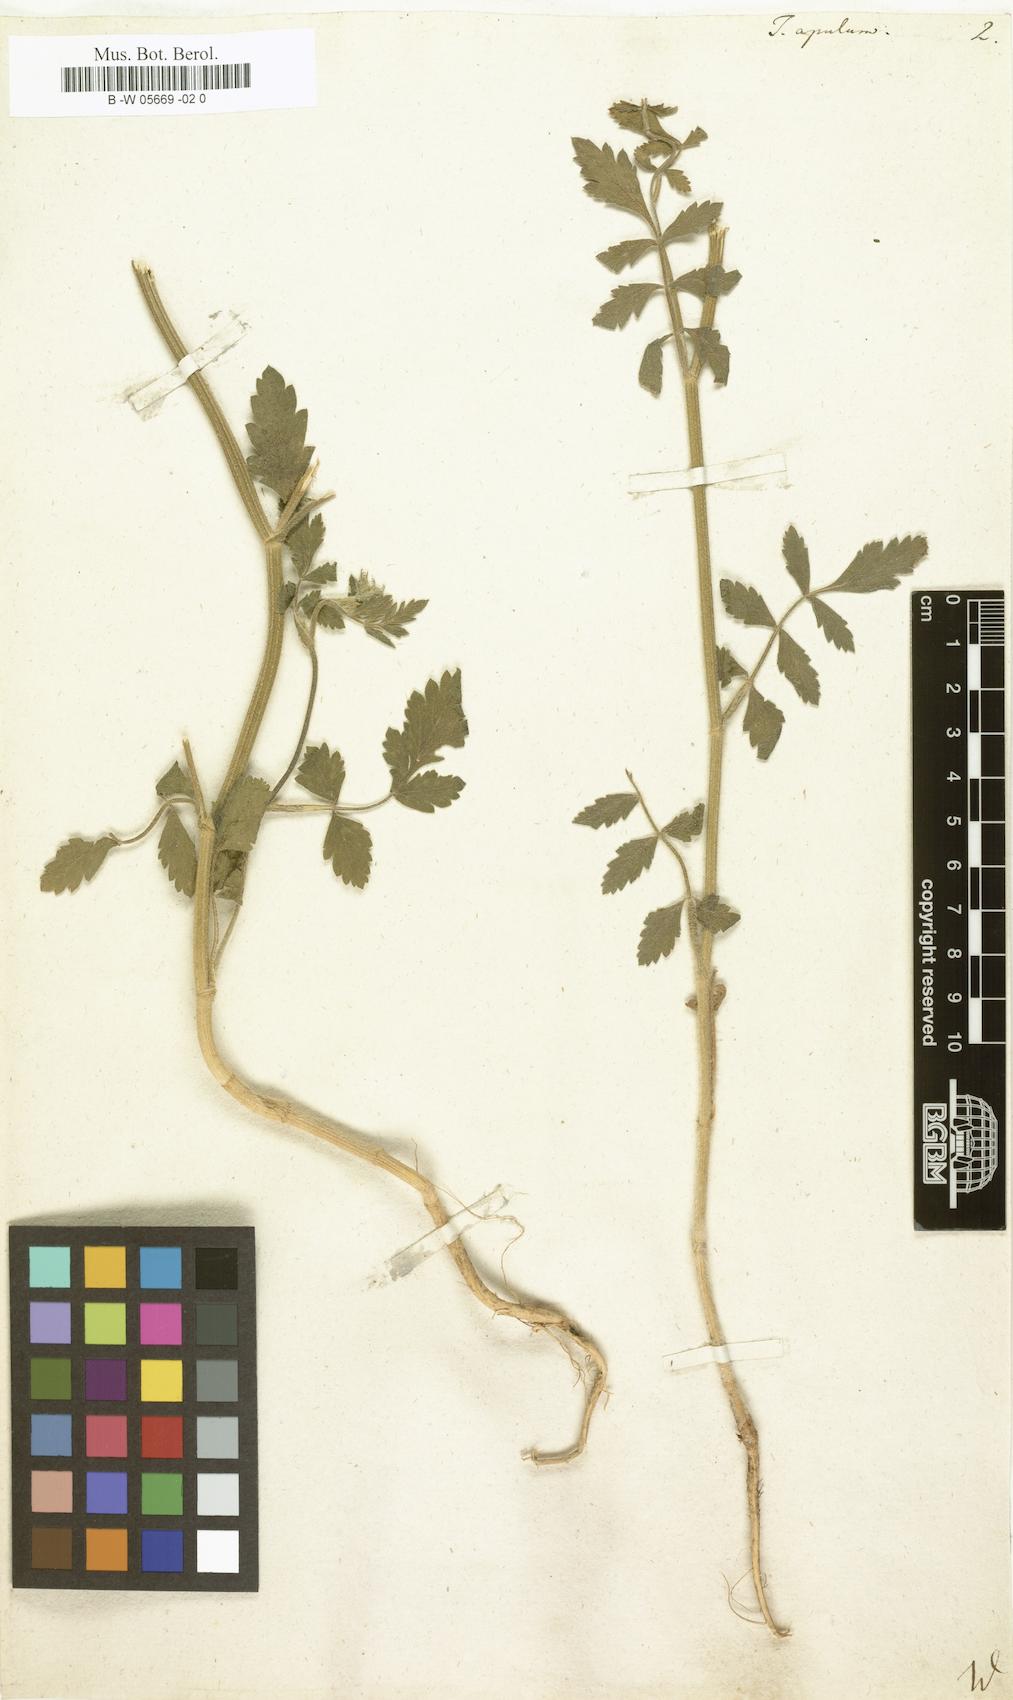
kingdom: Plantae
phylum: Tracheophyta
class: Magnoliopsida
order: Apiales
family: Apiaceae
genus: Tordylium
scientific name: Tordylium apulum
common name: Mediterranean hartwort
